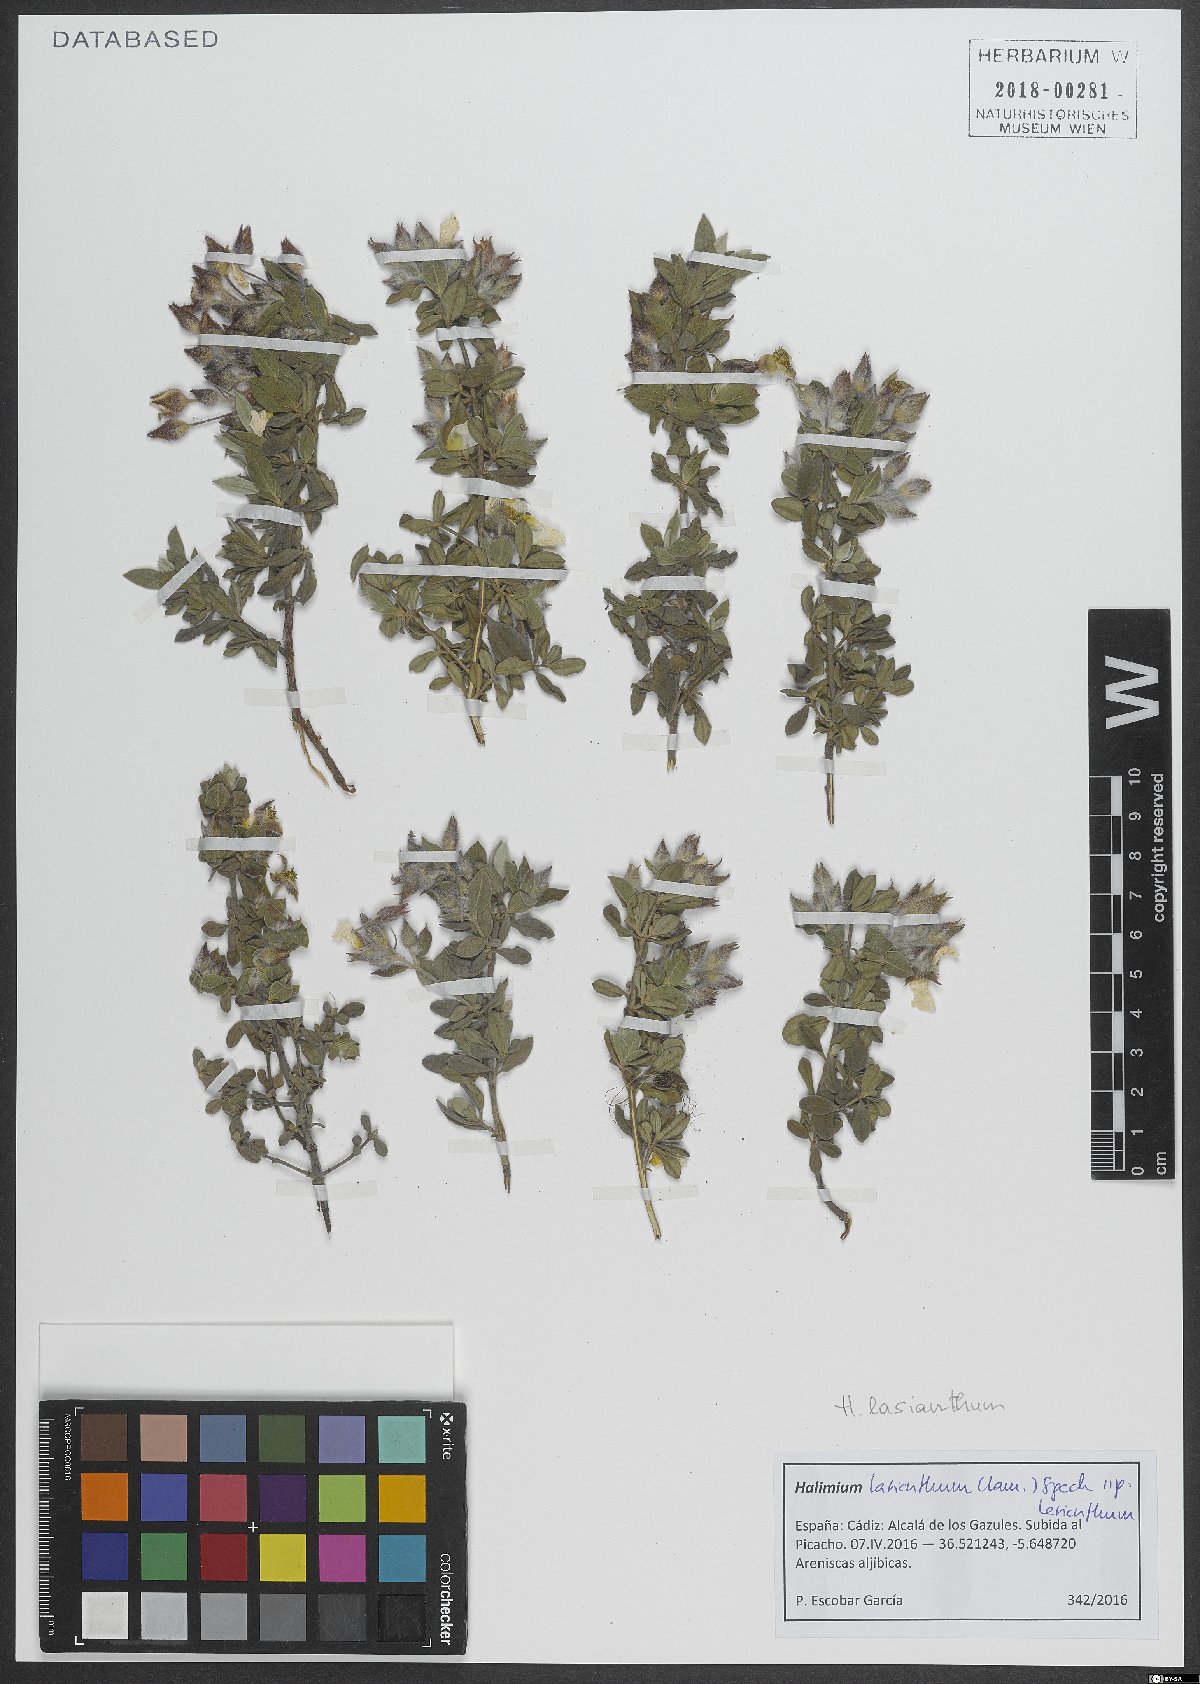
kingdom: Plantae
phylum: Tracheophyta
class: Magnoliopsida
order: Malvales
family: Cistaceae
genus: Halimium
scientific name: Halimium lasianthum
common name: Lisbon false sun-rose
